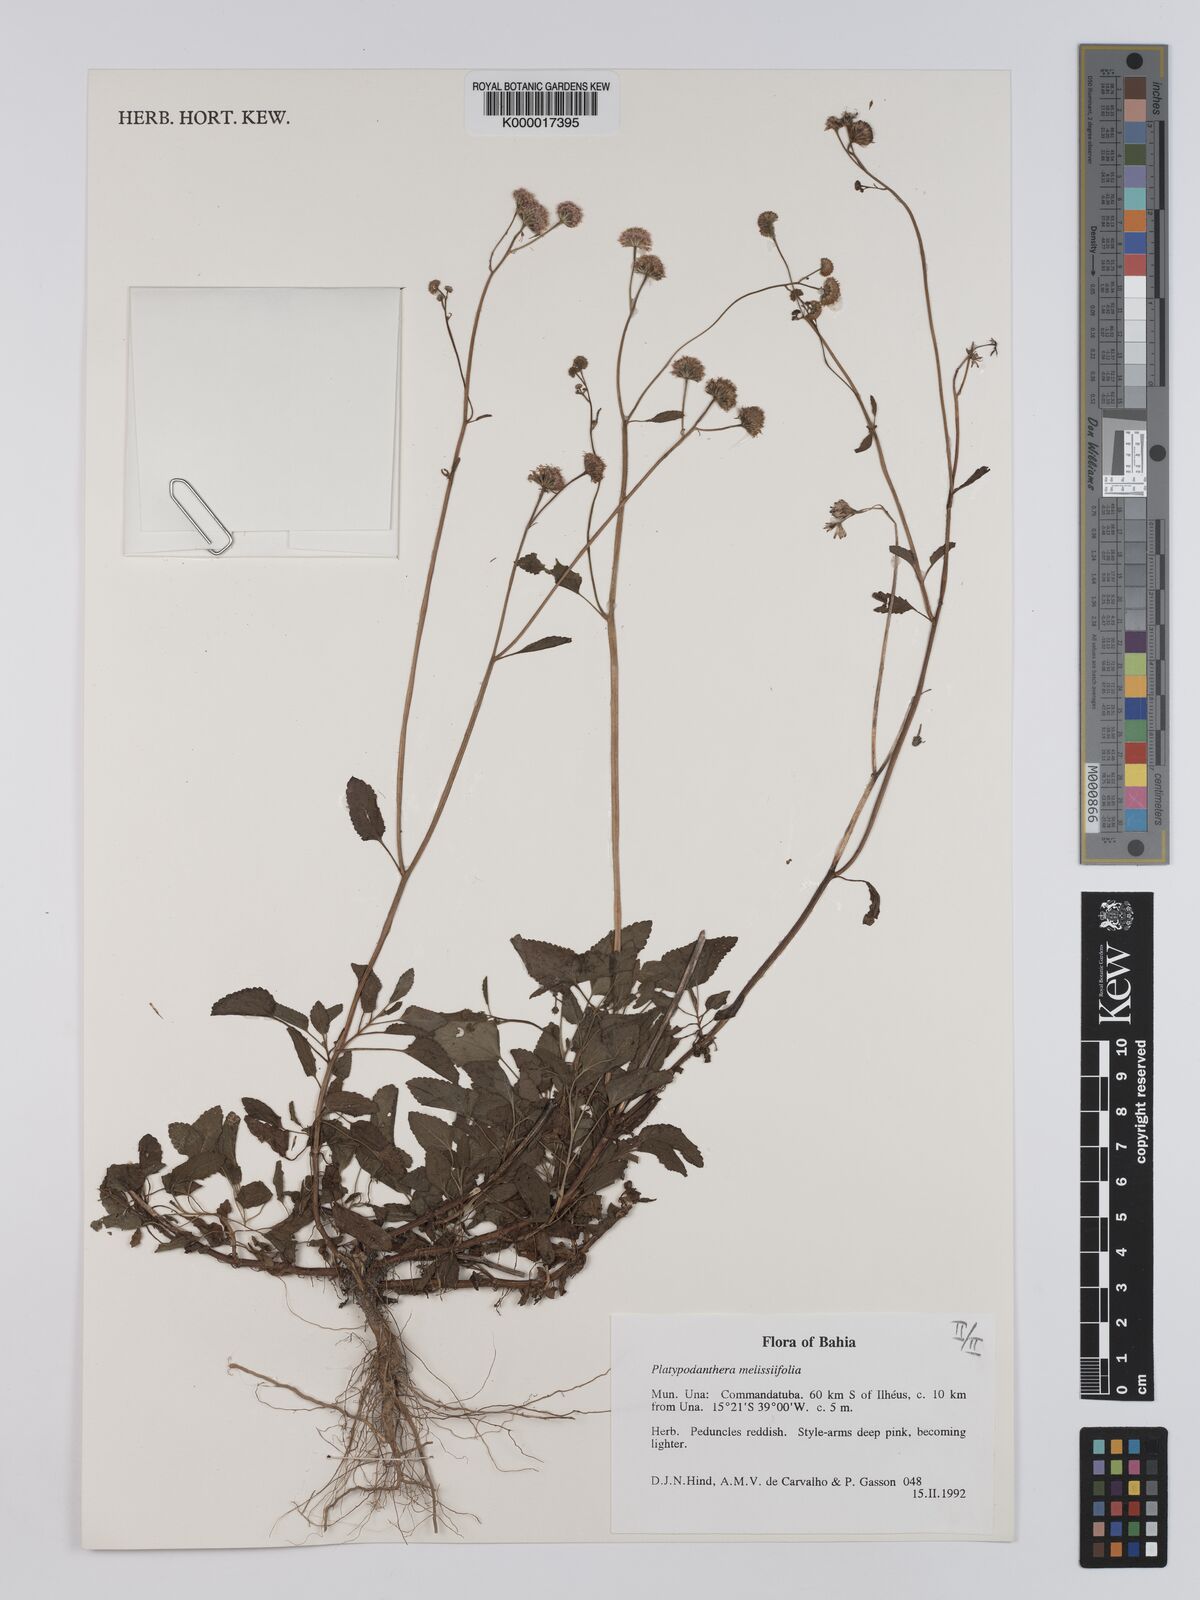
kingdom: Plantae
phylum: Tracheophyta
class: Magnoliopsida
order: Asterales
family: Asteraceae
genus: Platypodanthera
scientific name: Platypodanthera melissifolia
